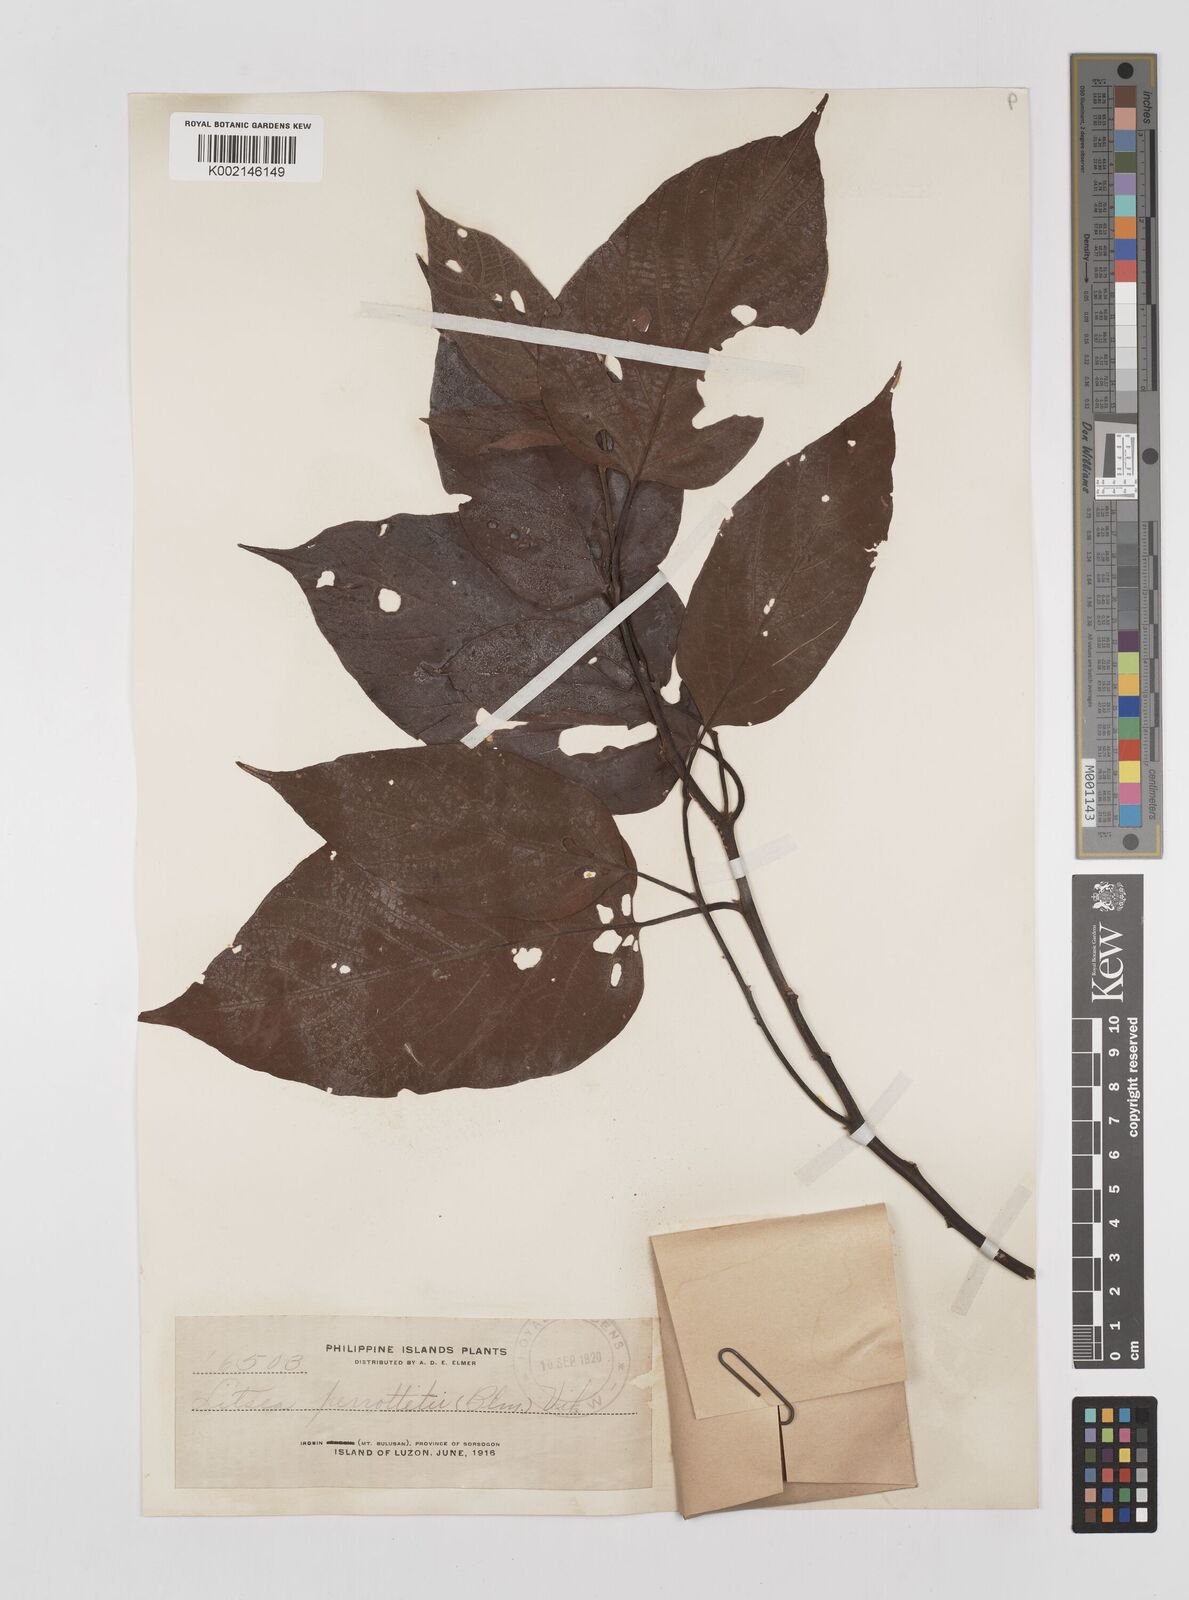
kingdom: Plantae
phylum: Tracheophyta
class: Magnoliopsida
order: Laurales
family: Lauraceae
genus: Litsea
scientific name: Litsea cordata
